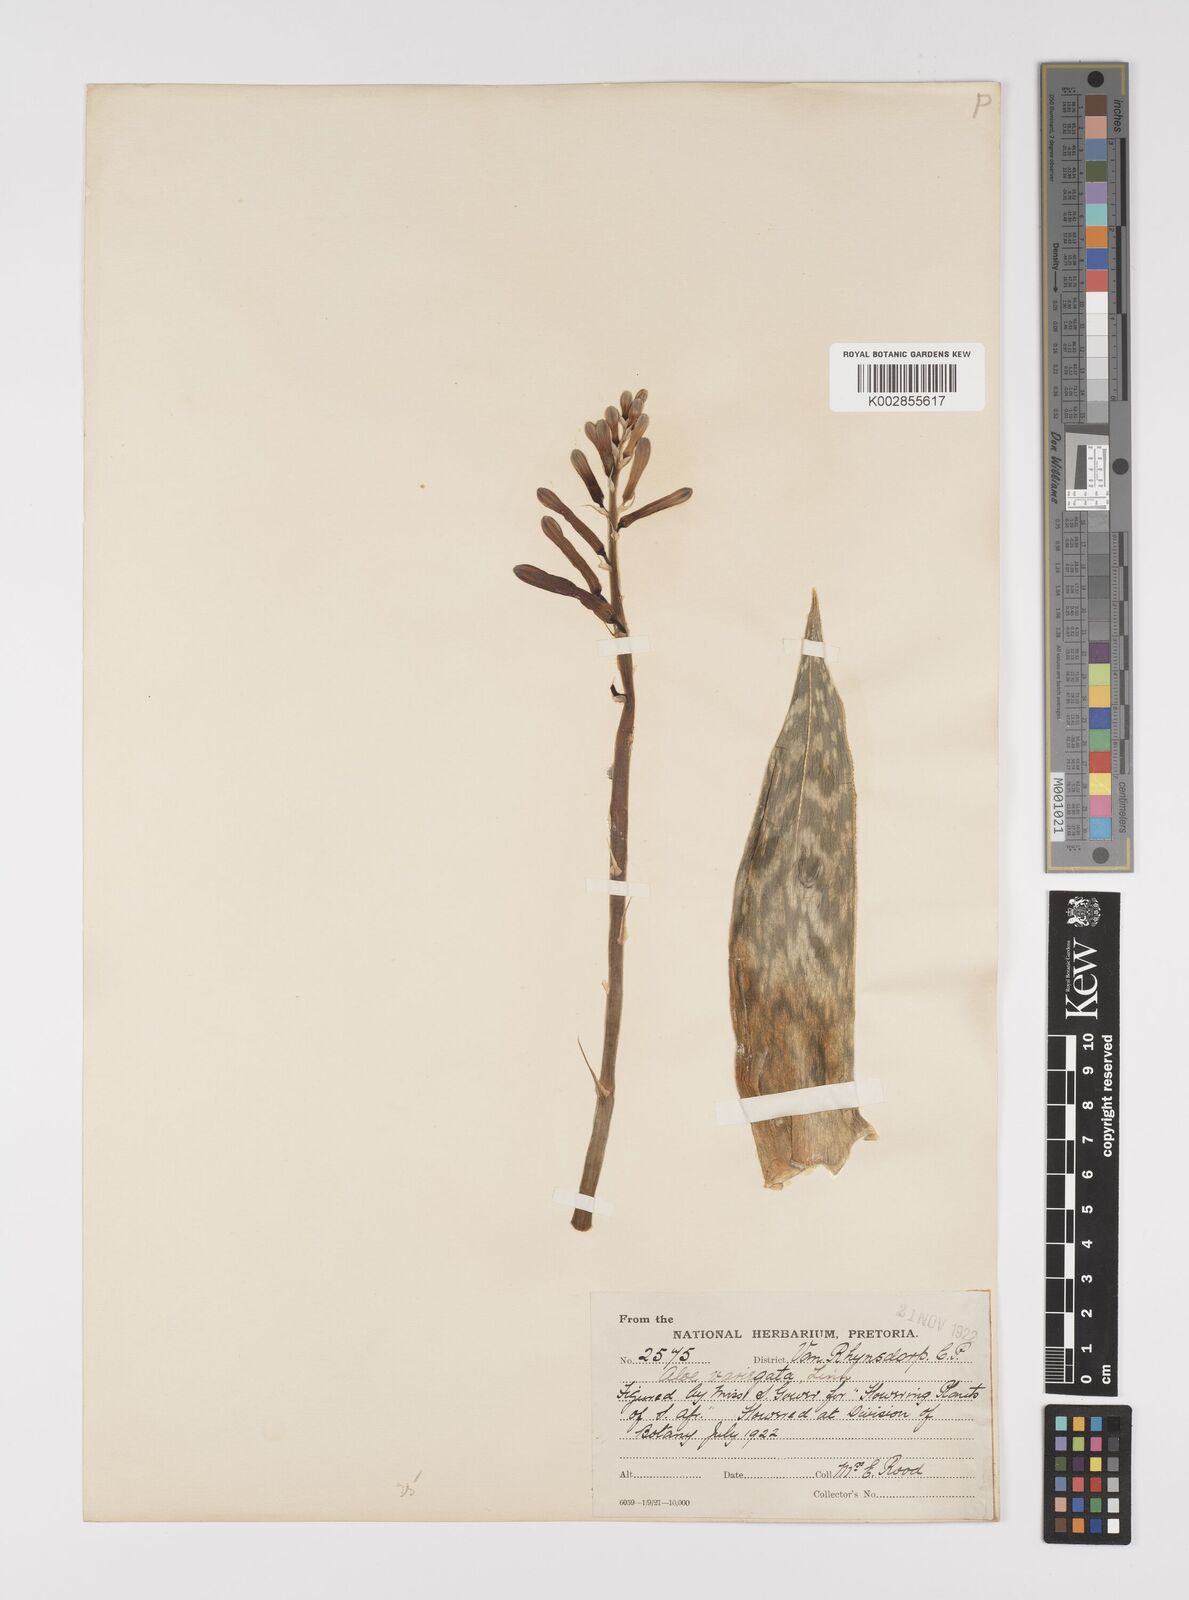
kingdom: Plantae
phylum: Tracheophyta
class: Liliopsida
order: Asparagales
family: Asphodelaceae
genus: Gonialoe
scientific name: Gonialoe variegata
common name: Aloe variegata
